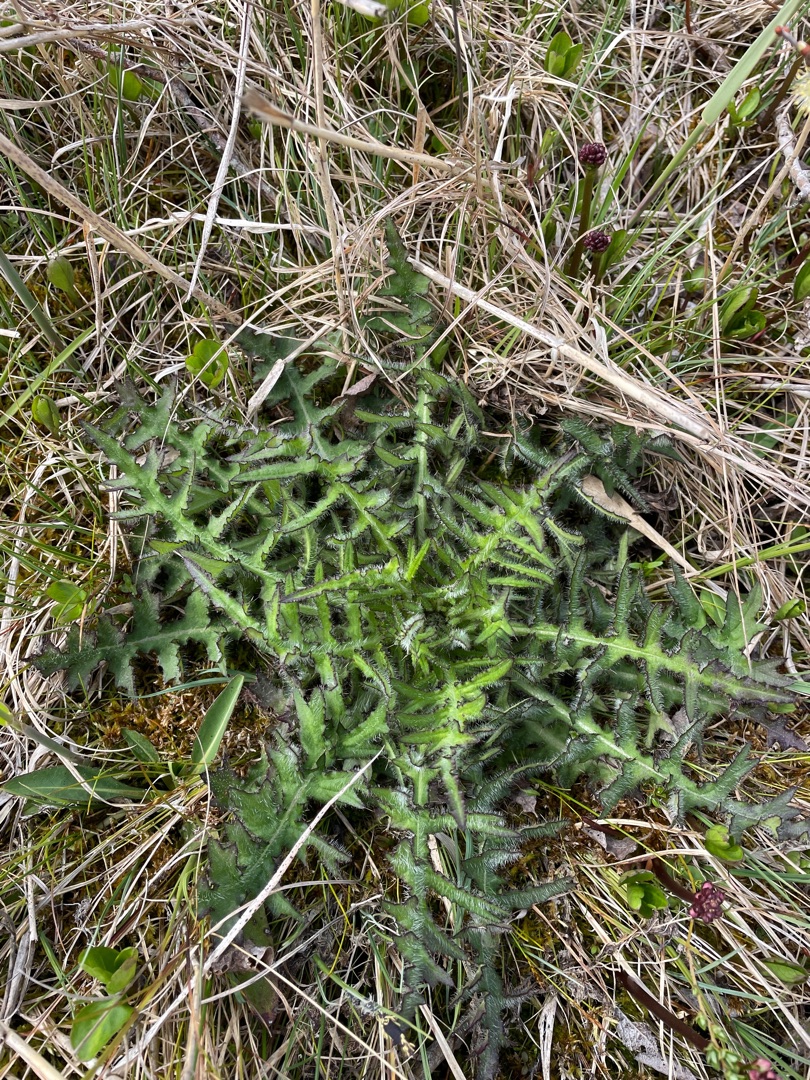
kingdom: Plantae
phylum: Tracheophyta
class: Magnoliopsida
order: Asterales
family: Asteraceae
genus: Cirsium
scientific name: Cirsium palustre
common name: Kær-tidsel
